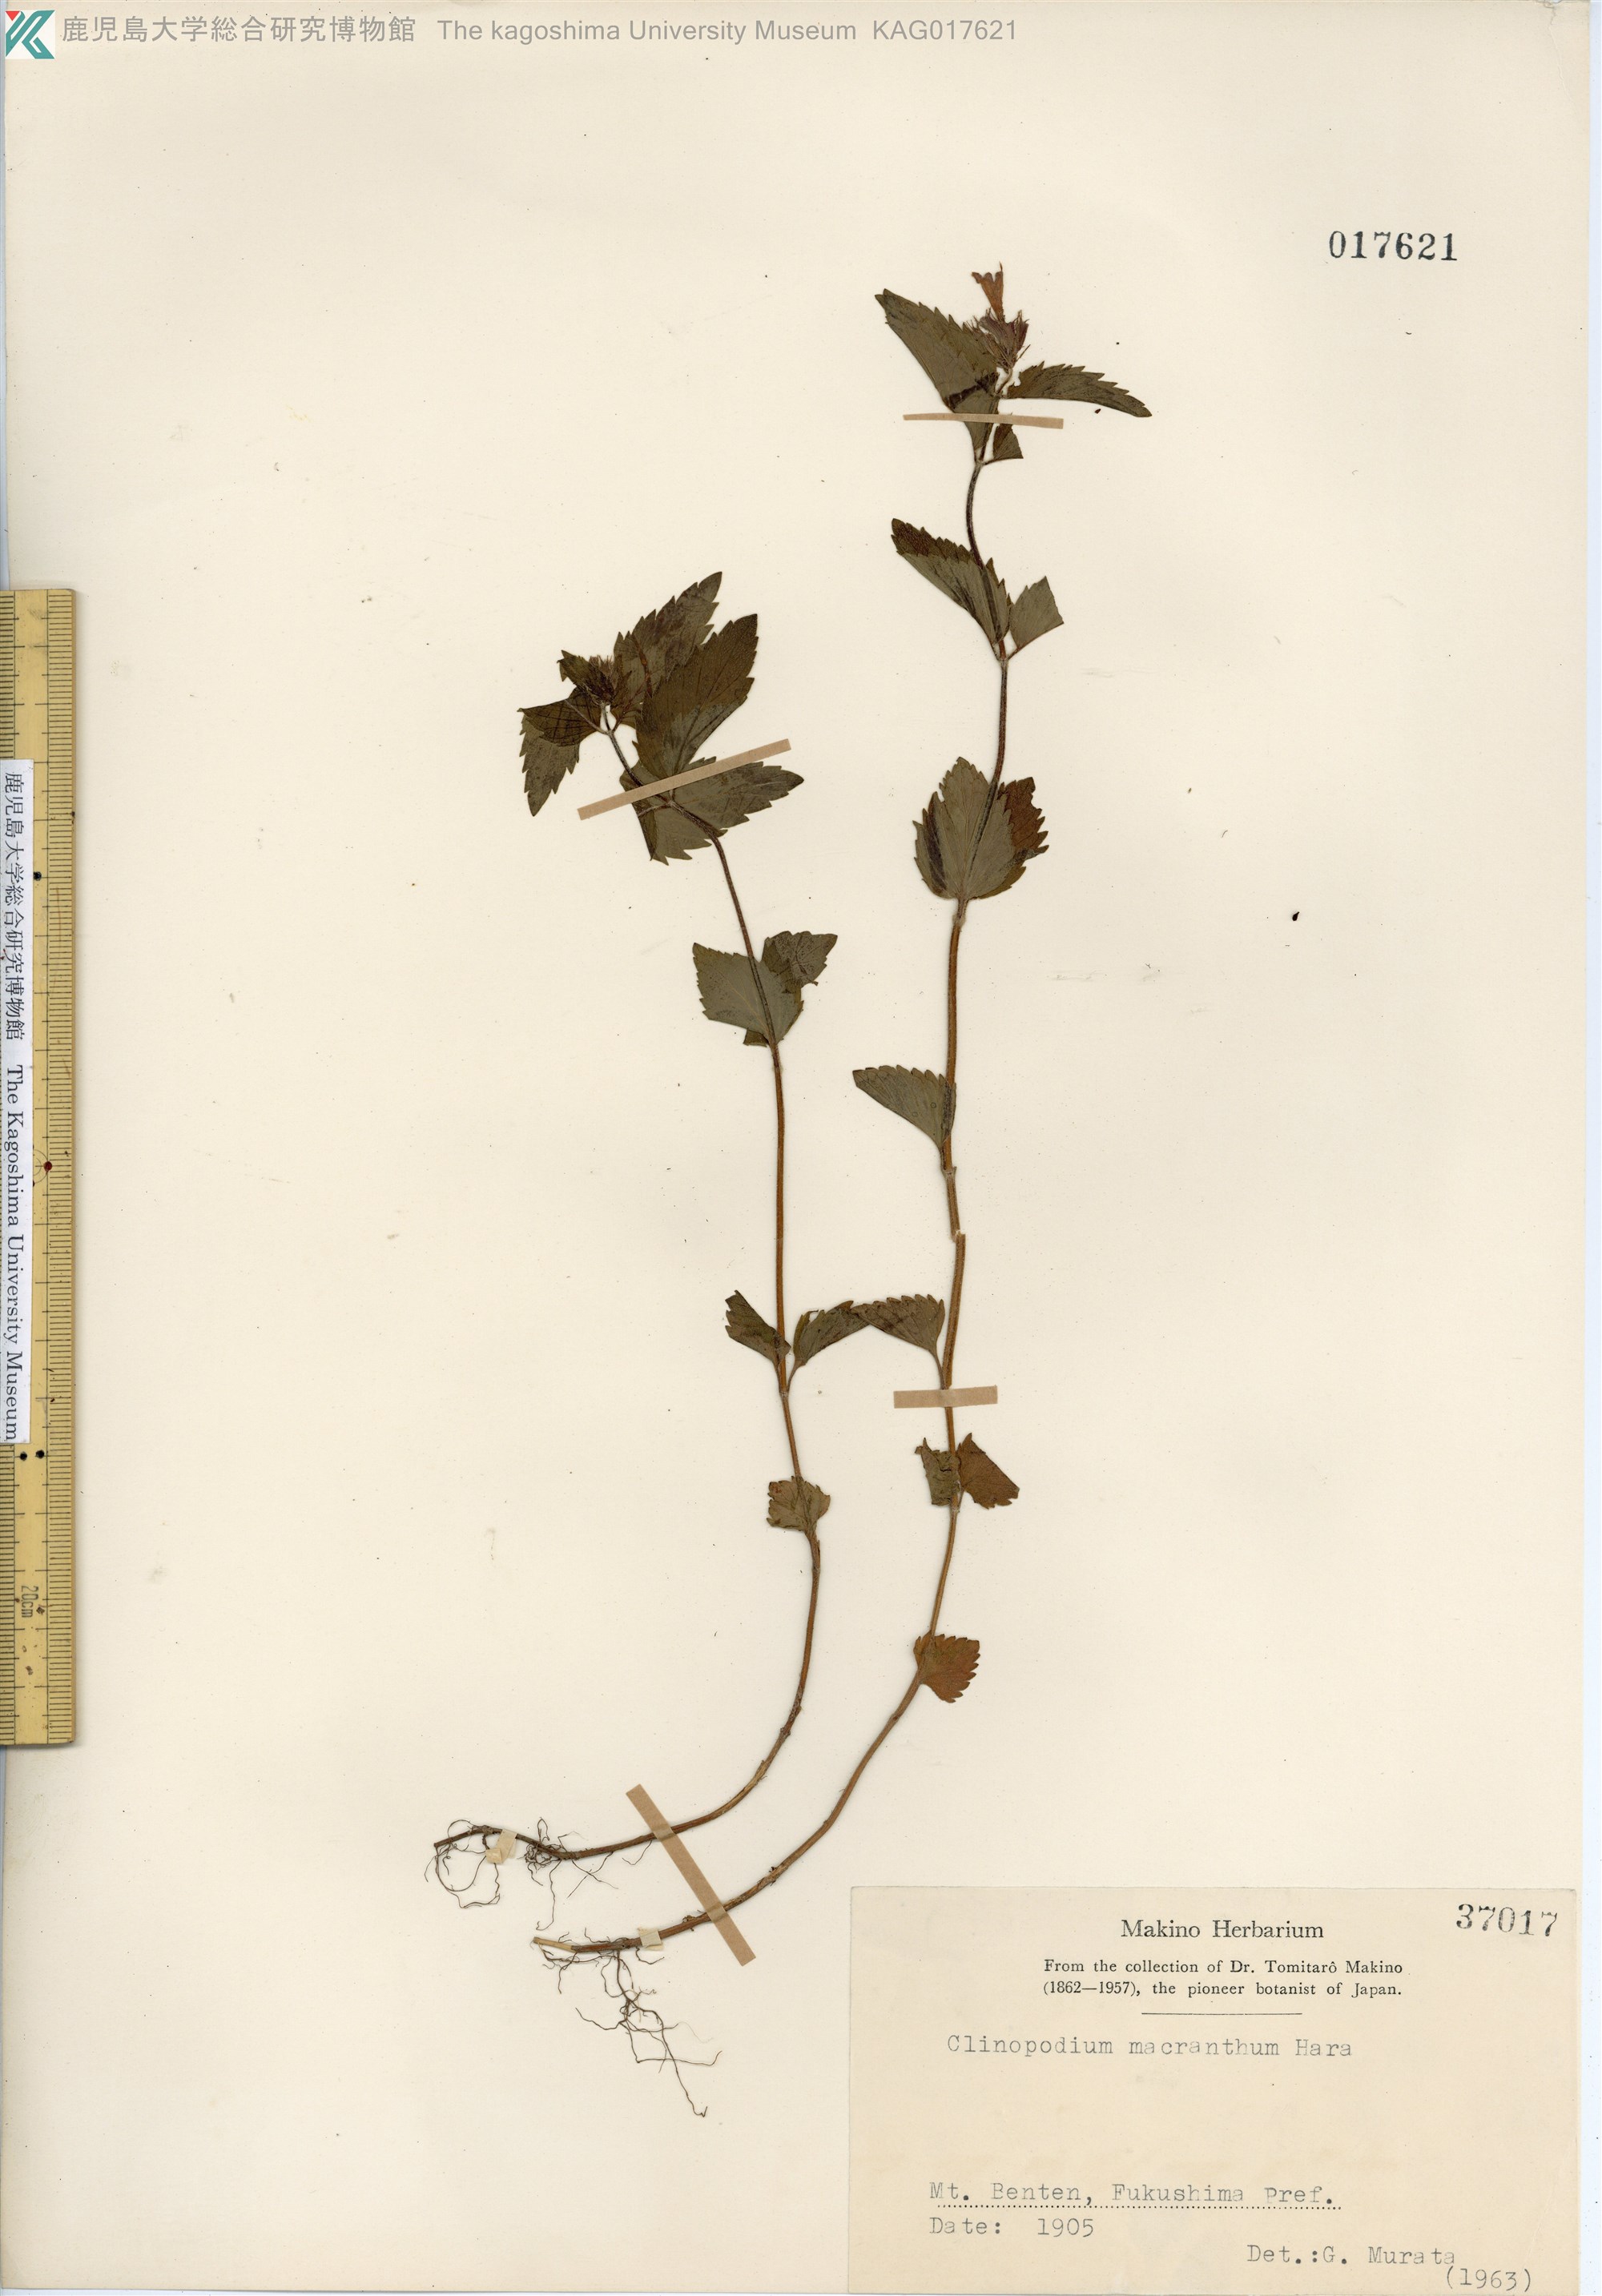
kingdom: Plantae
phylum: Tracheophyta
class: Magnoliopsida
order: Lamiales
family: Lamiaceae
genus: Clinopodium
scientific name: Clinopodium macranthum
